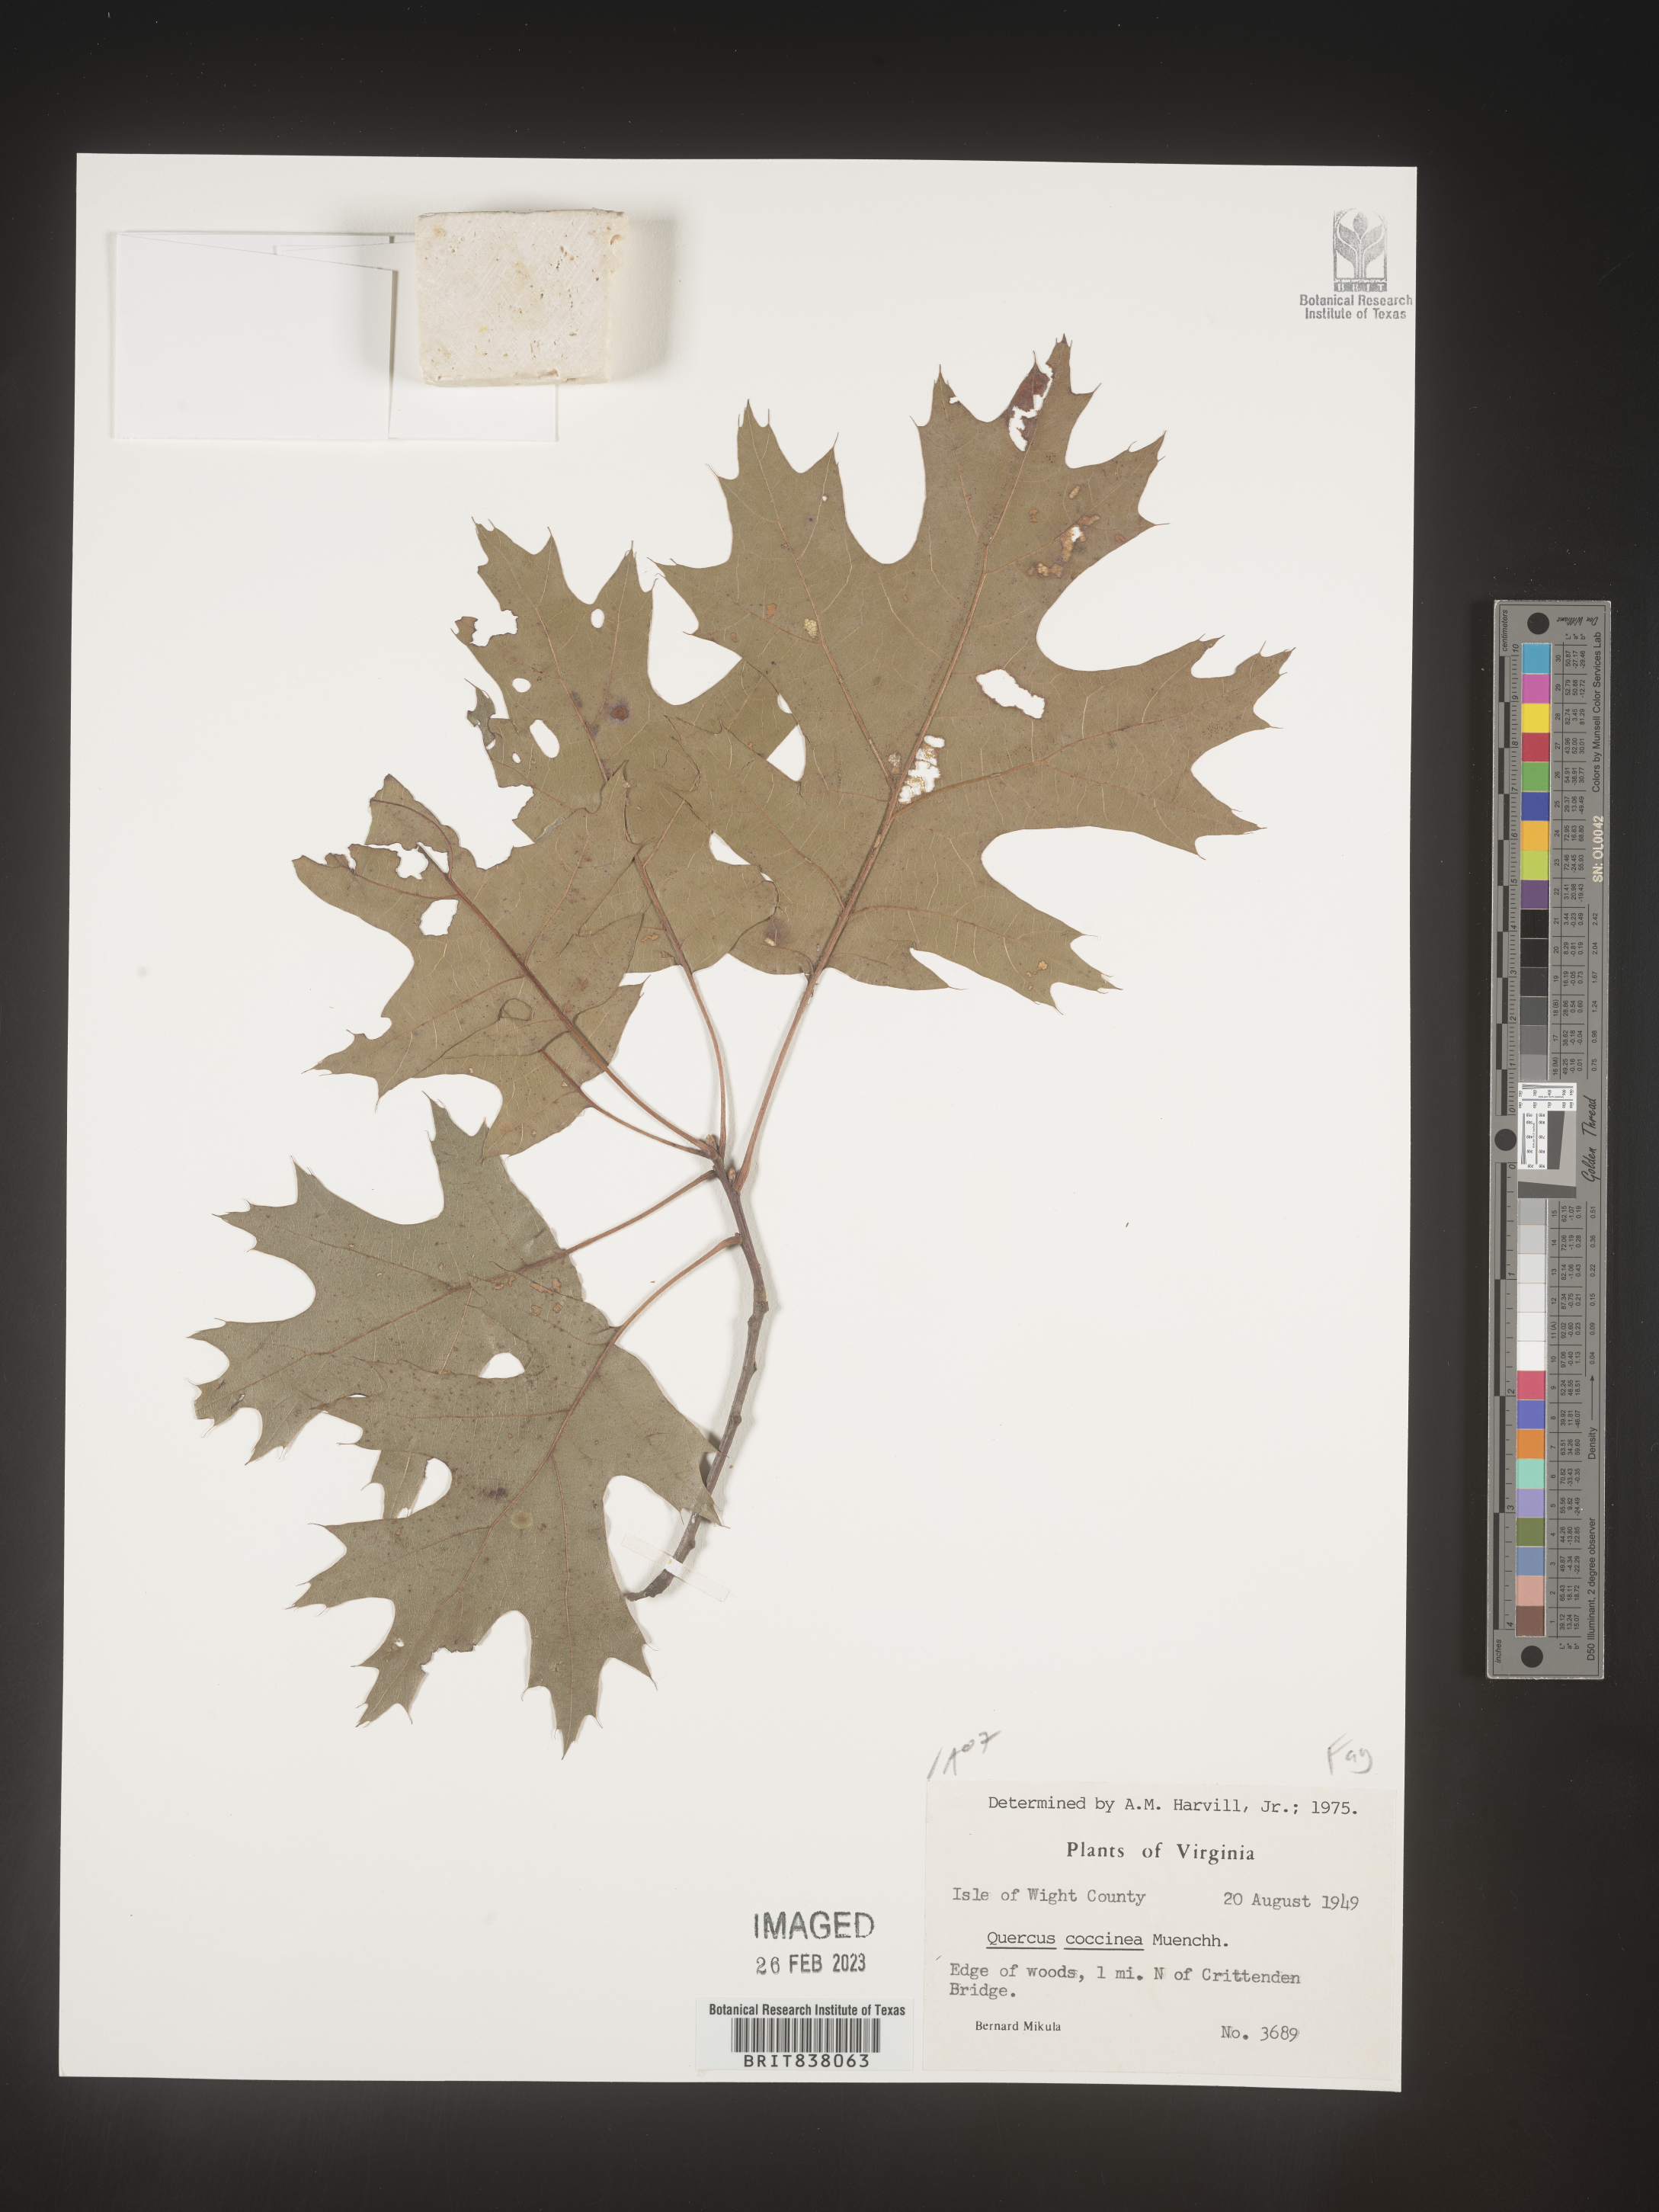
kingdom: Plantae
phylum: Tracheophyta
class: Magnoliopsida
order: Fagales
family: Fagaceae
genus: Quercus
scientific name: Quercus coccinea
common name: Scarlet oak
